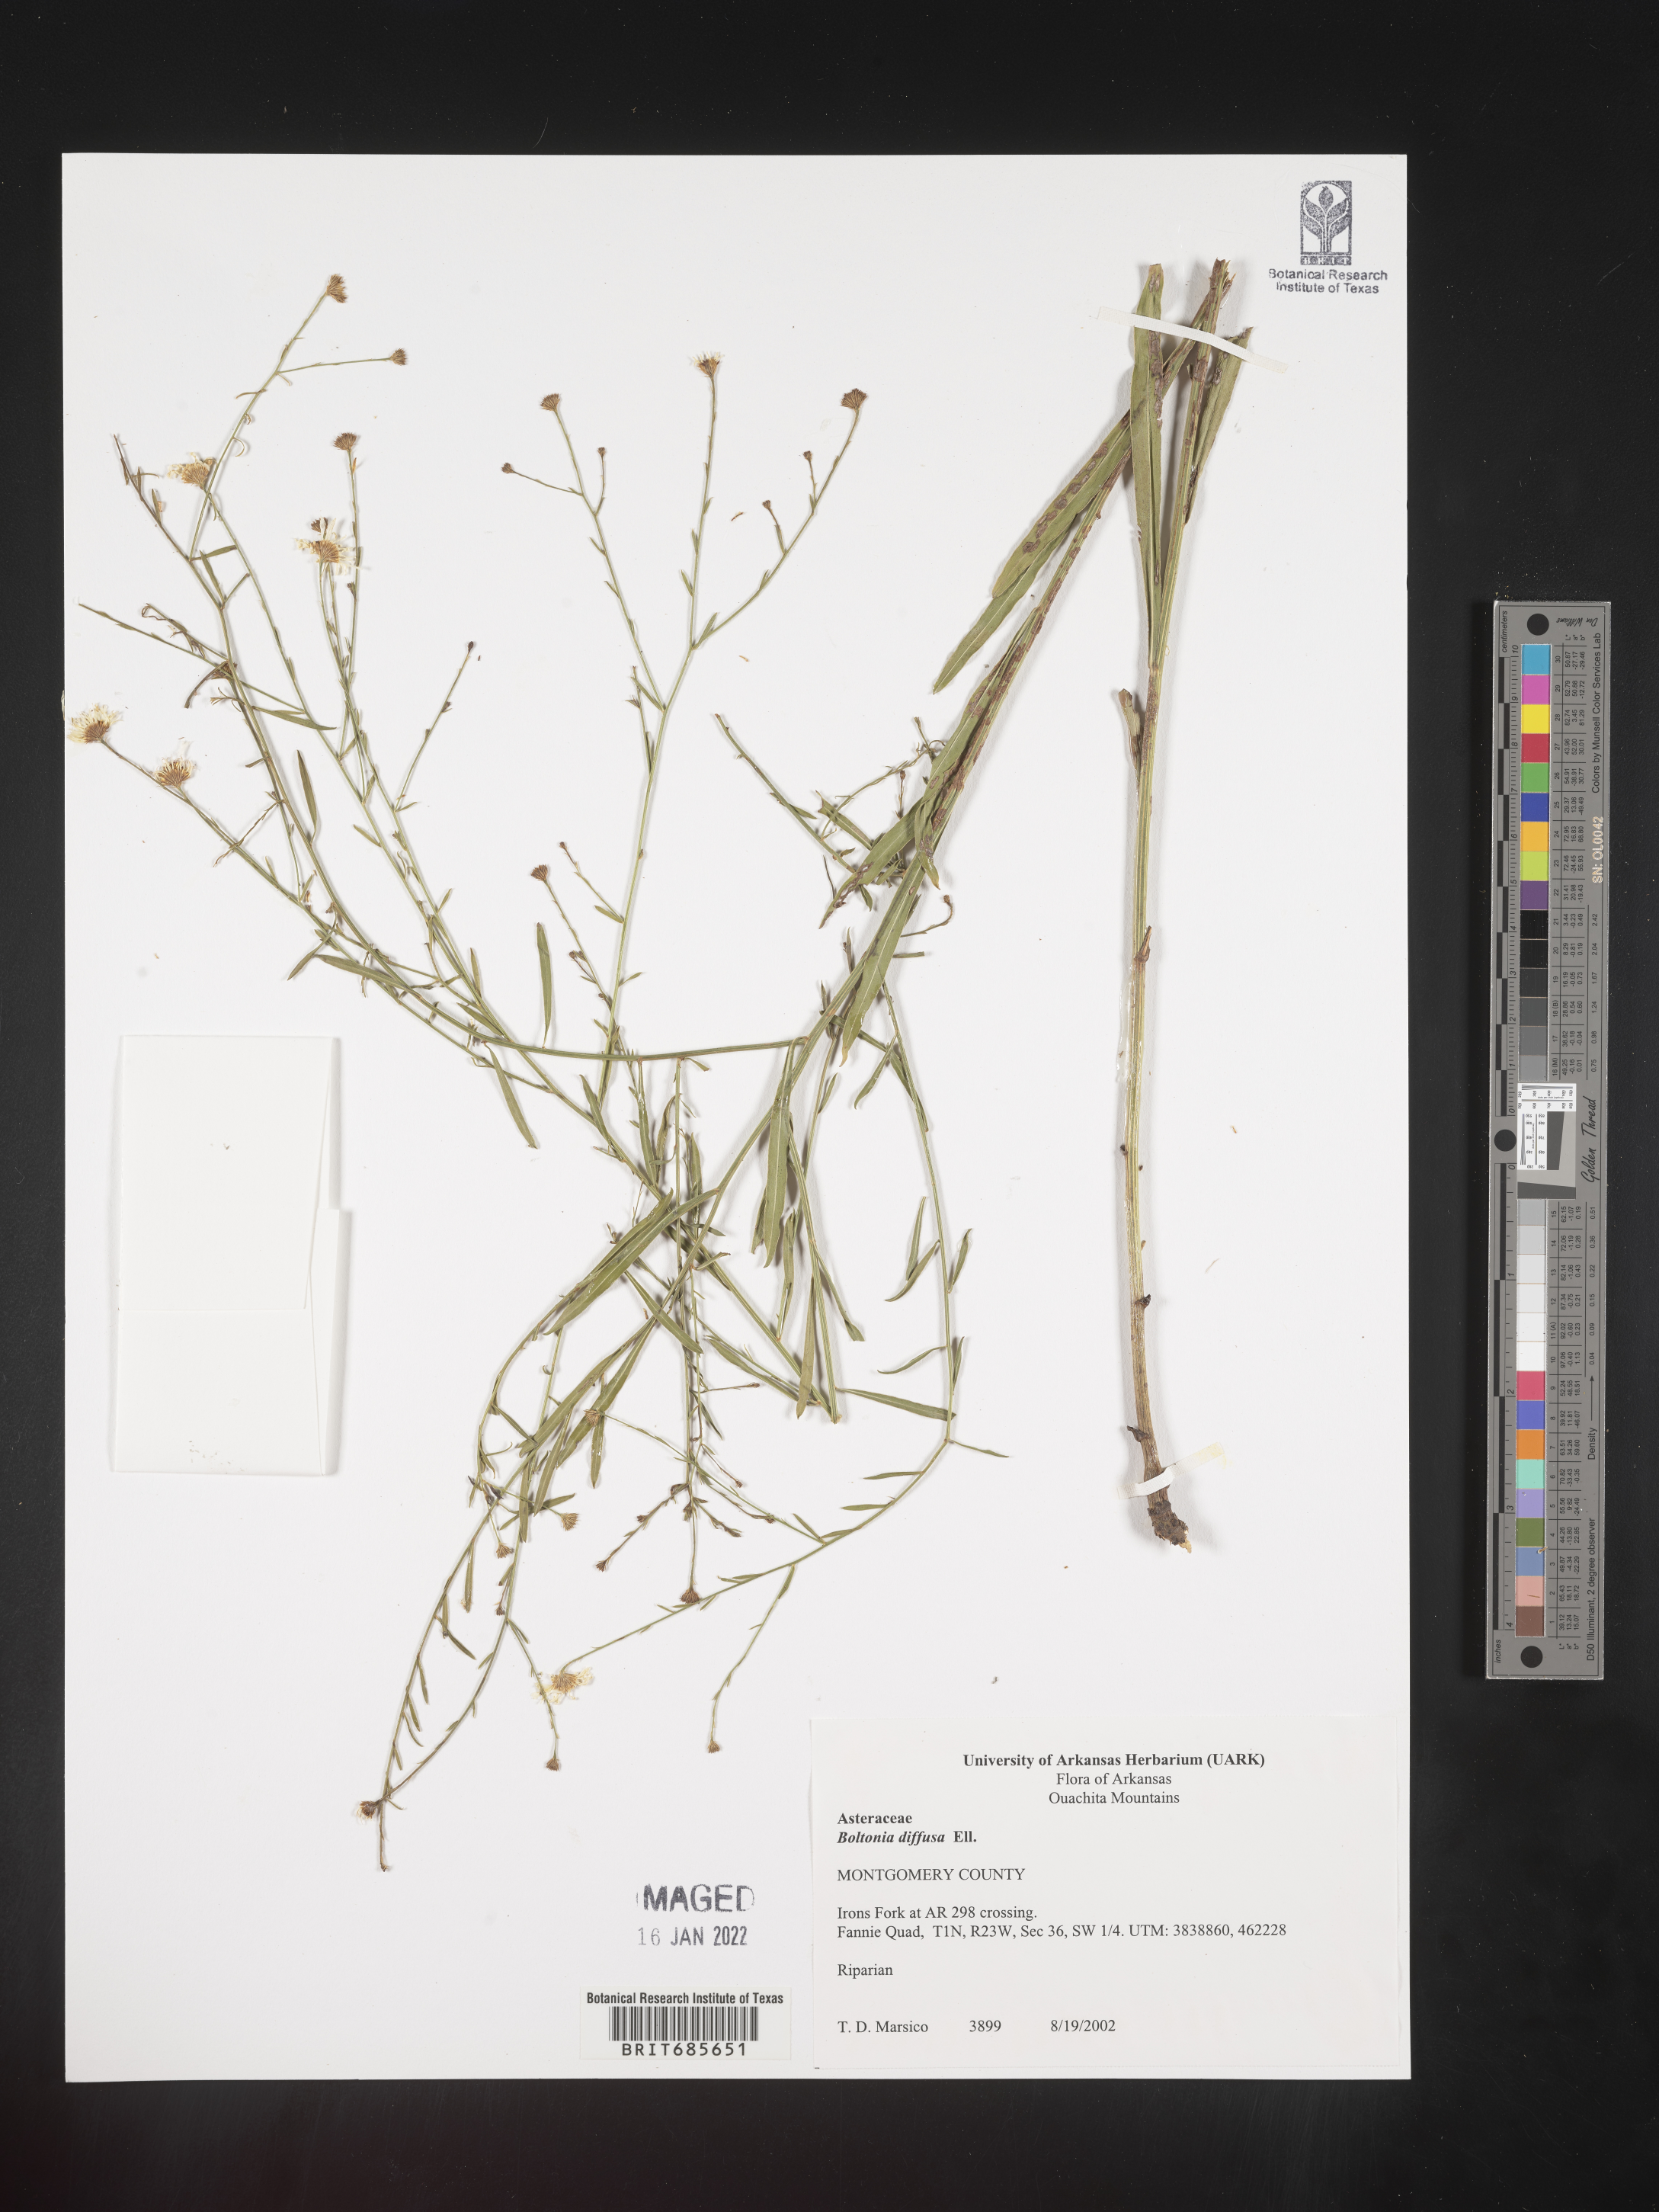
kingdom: Plantae
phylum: Tracheophyta
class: Magnoliopsida
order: Asterales
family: Asteraceae
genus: Boltonia
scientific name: Boltonia diffusa
